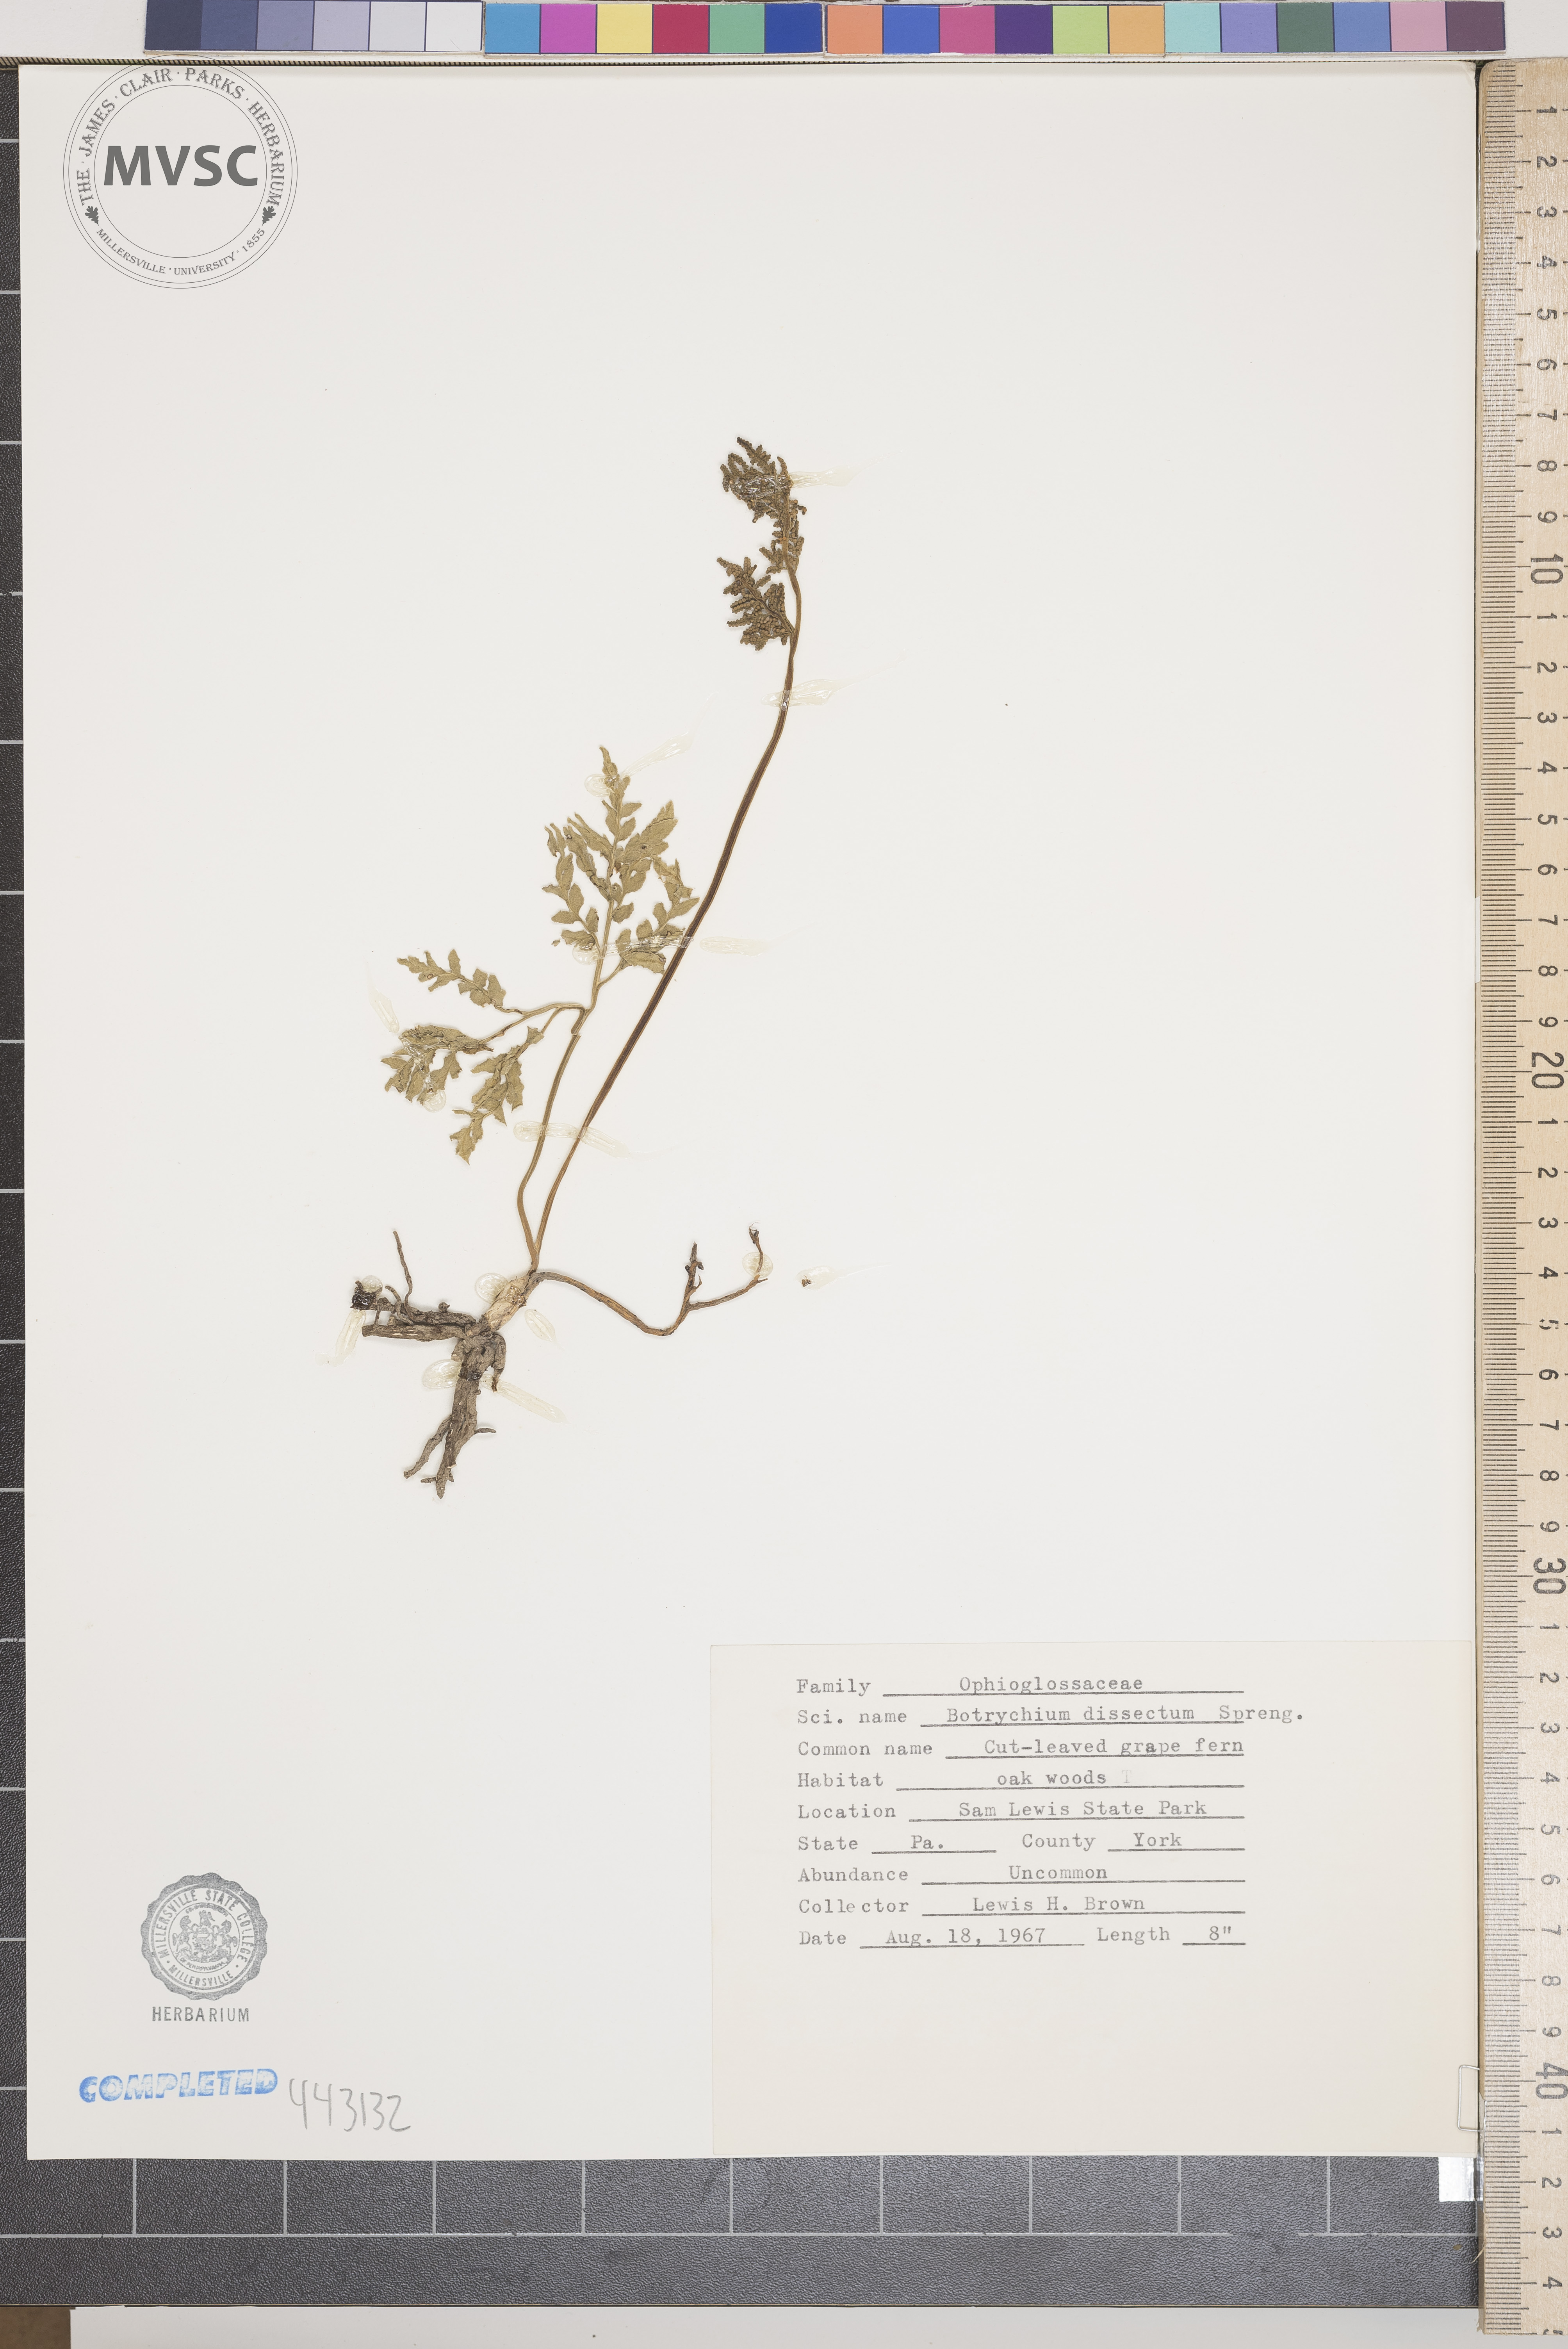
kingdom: Plantae
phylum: Tracheophyta
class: Polypodiopsida
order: Ophioglossales
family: Ophioglossaceae
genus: Sceptridium
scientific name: Sceptridium dissectum
